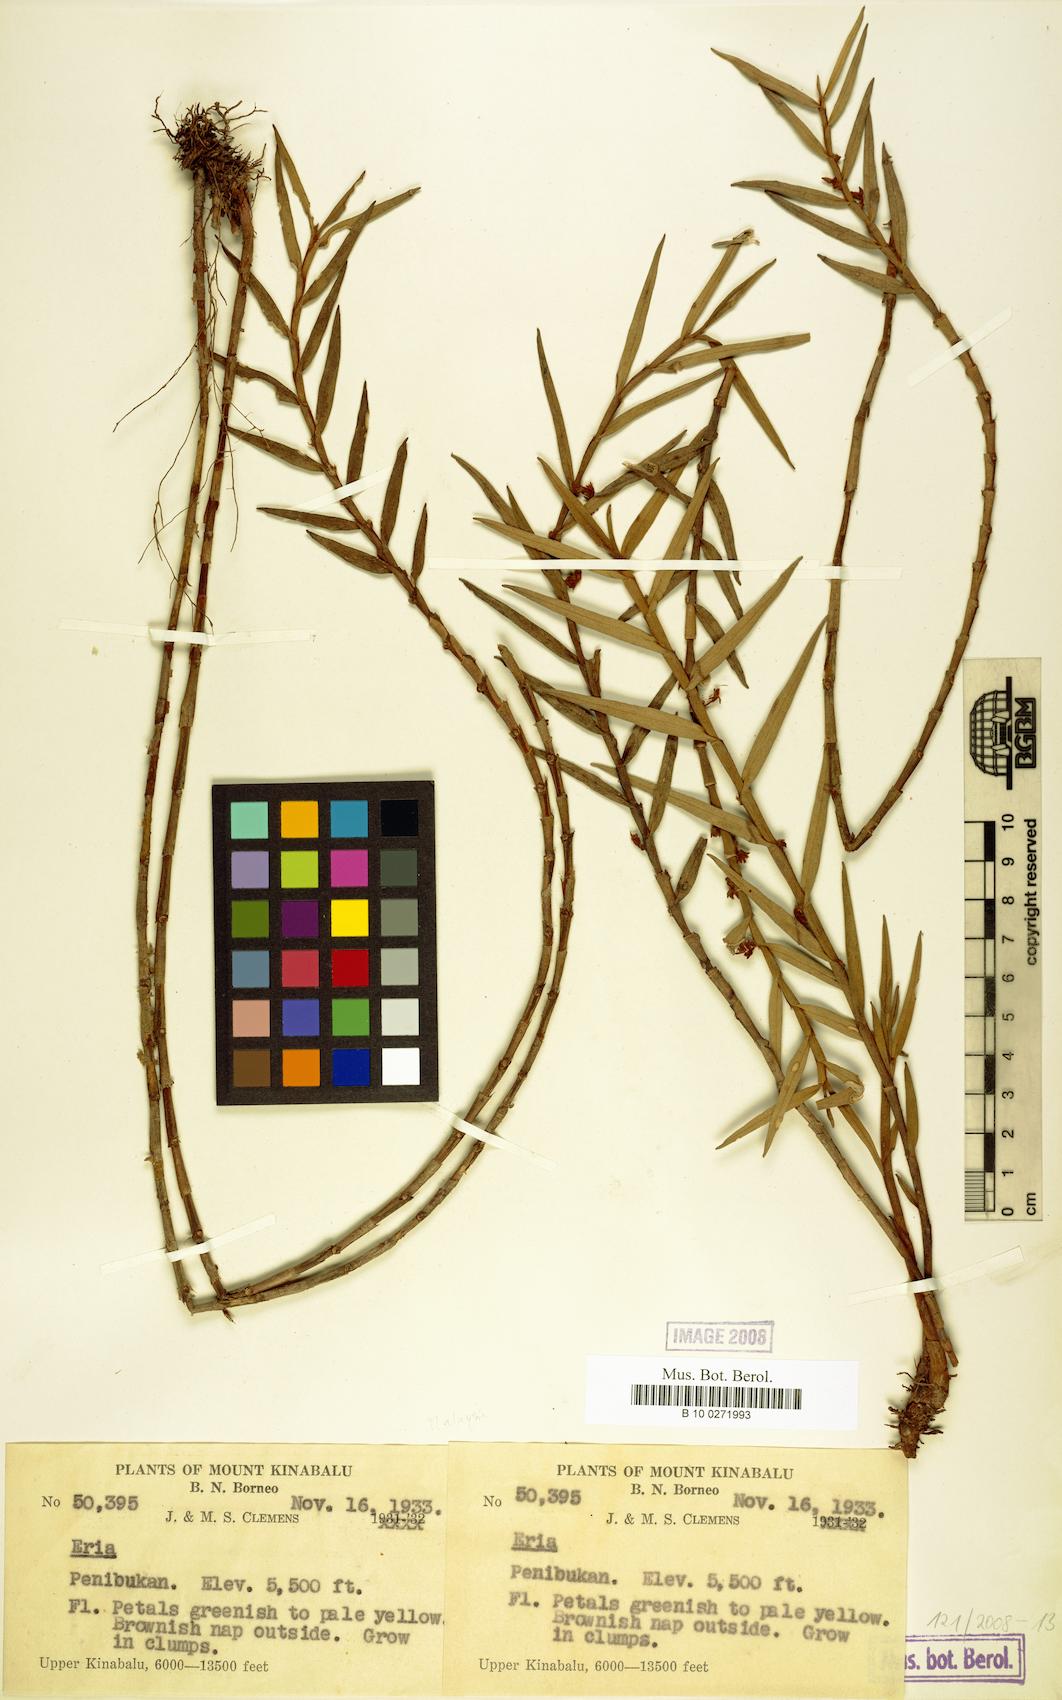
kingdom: Plantae
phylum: Tracheophyta
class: Liliopsida
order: Asparagales
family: Orchidaceae
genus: Eria
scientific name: Eria
